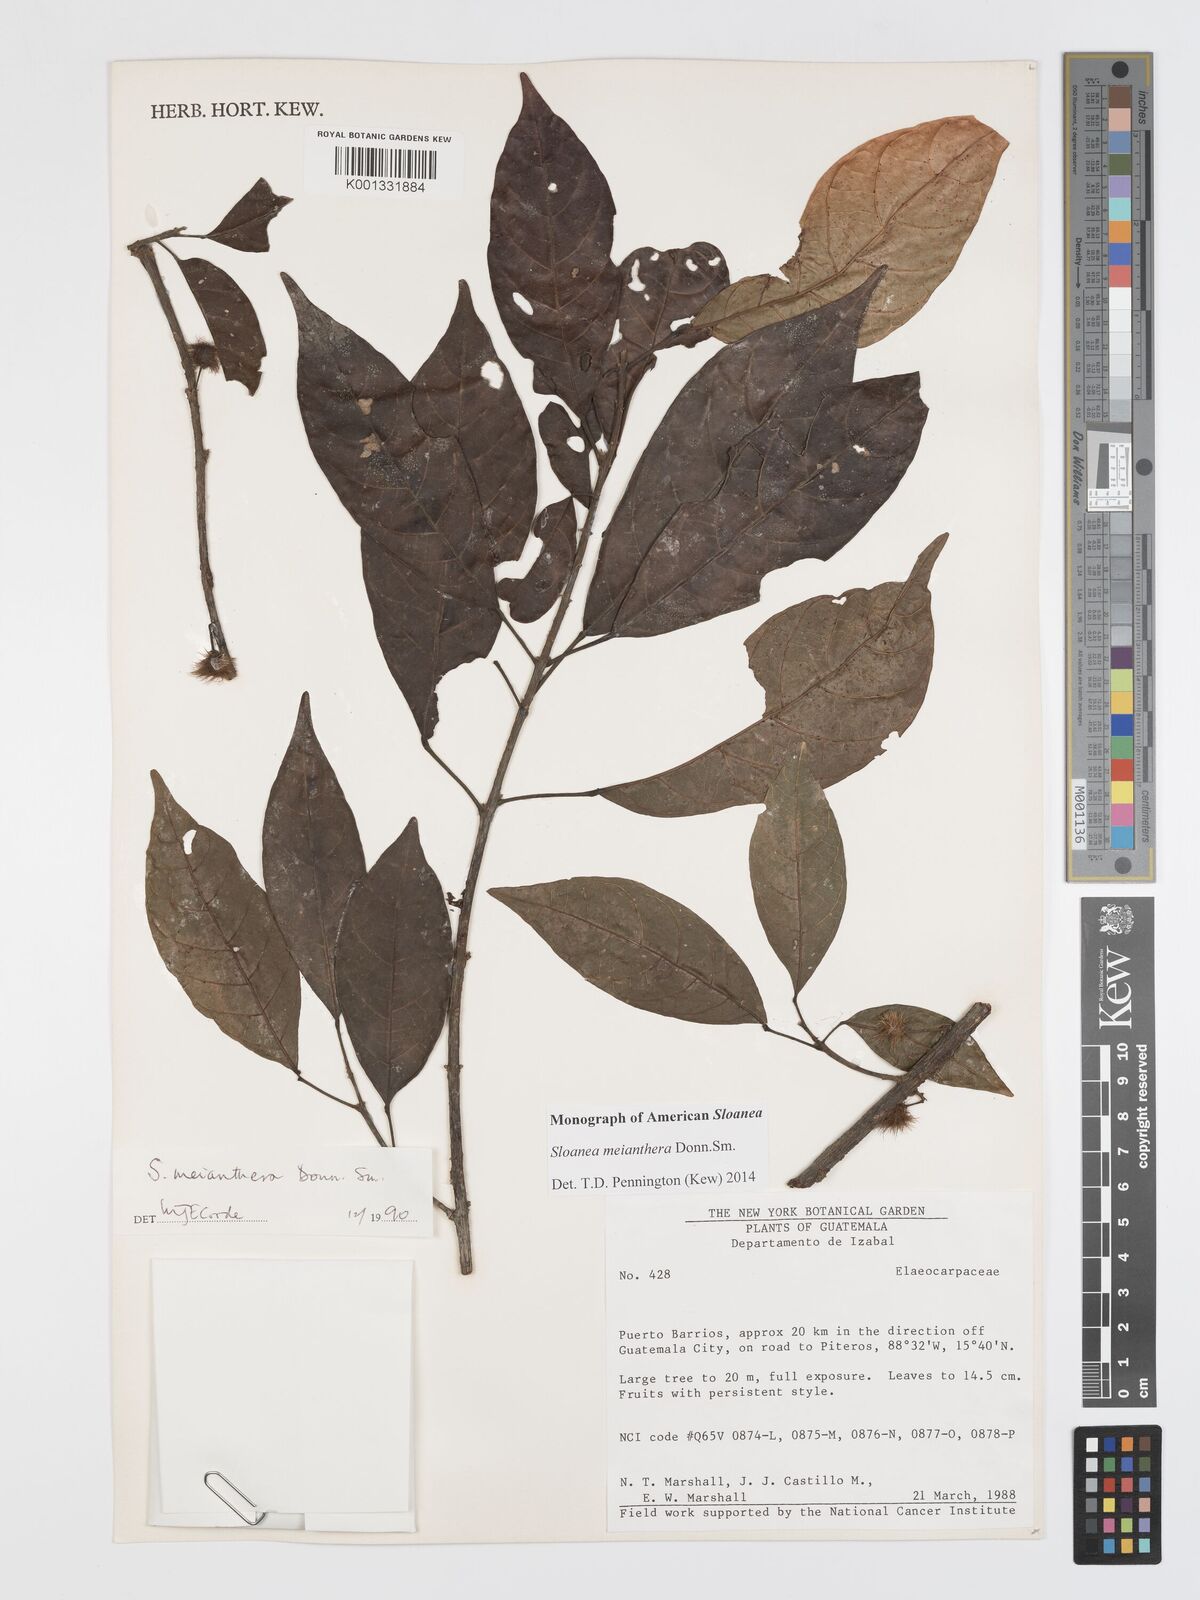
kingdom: Plantae
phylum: Tracheophyta
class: Magnoliopsida
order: Oxalidales
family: Elaeocarpaceae
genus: Sloanea
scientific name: Sloanea meianthera
